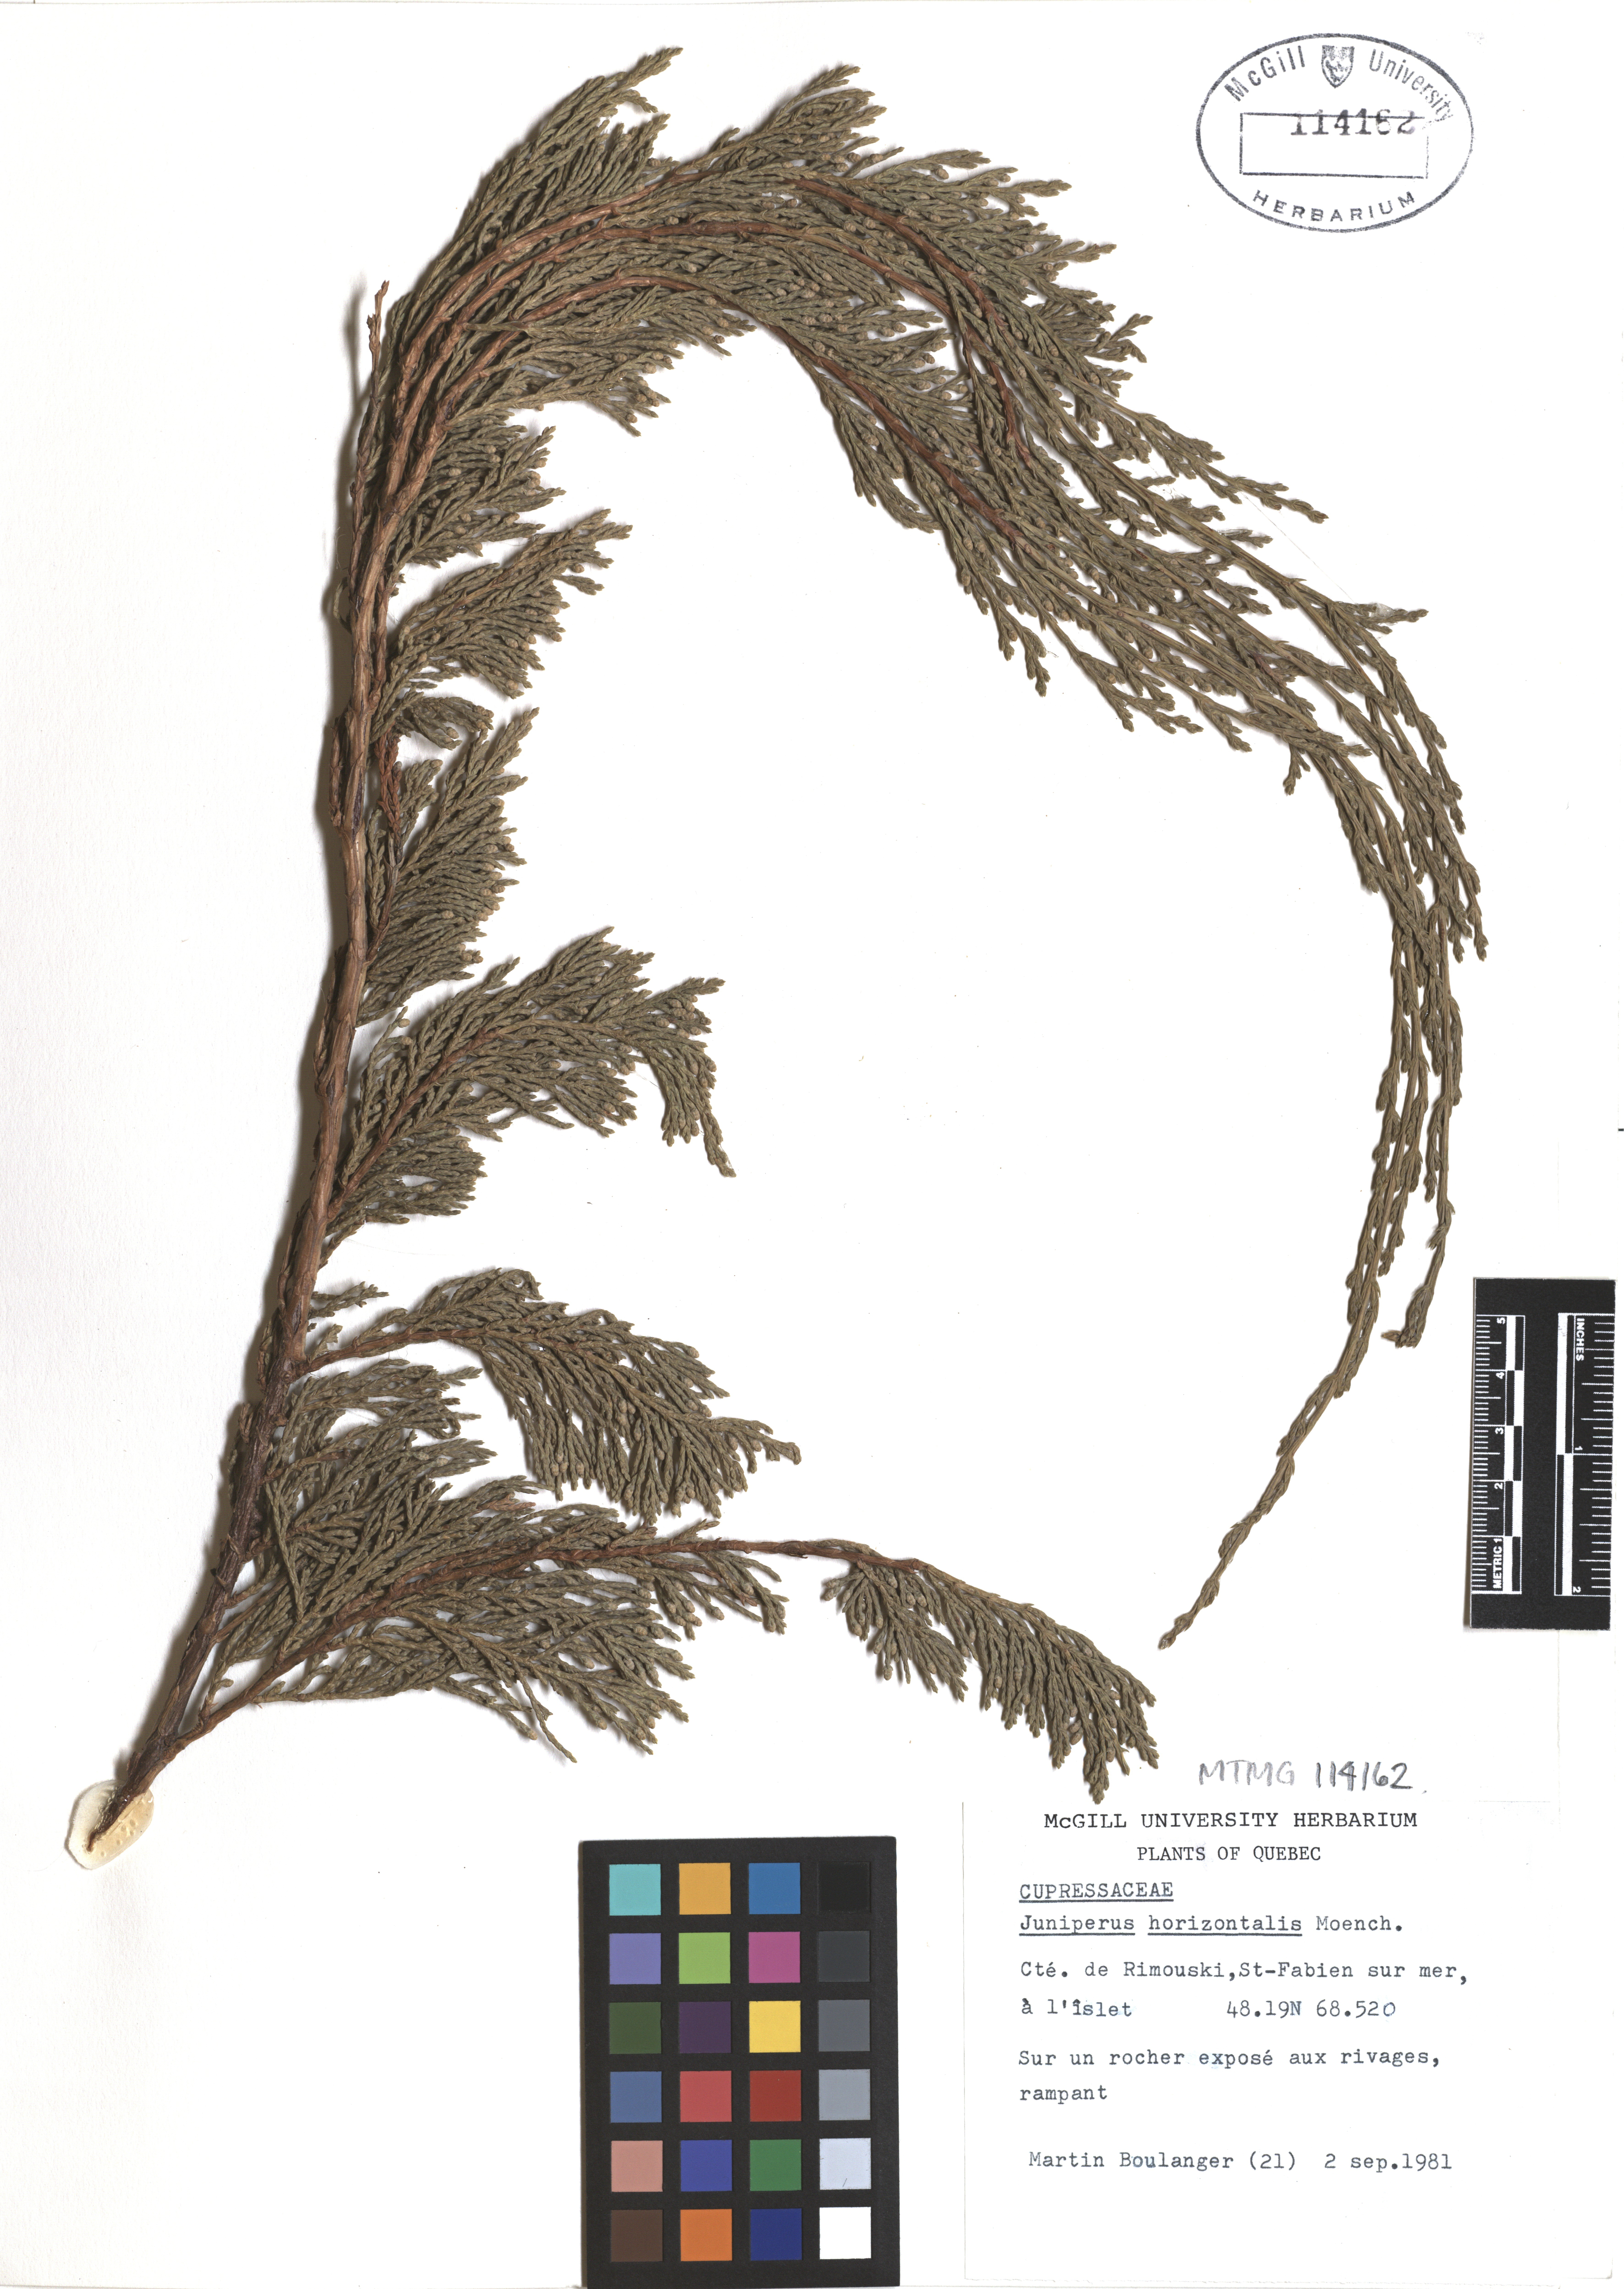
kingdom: Plantae
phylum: Tracheophyta
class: Pinopsida
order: Pinales
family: Cupressaceae
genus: Juniperus
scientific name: Juniperus horizontalis
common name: Creeping juniper
